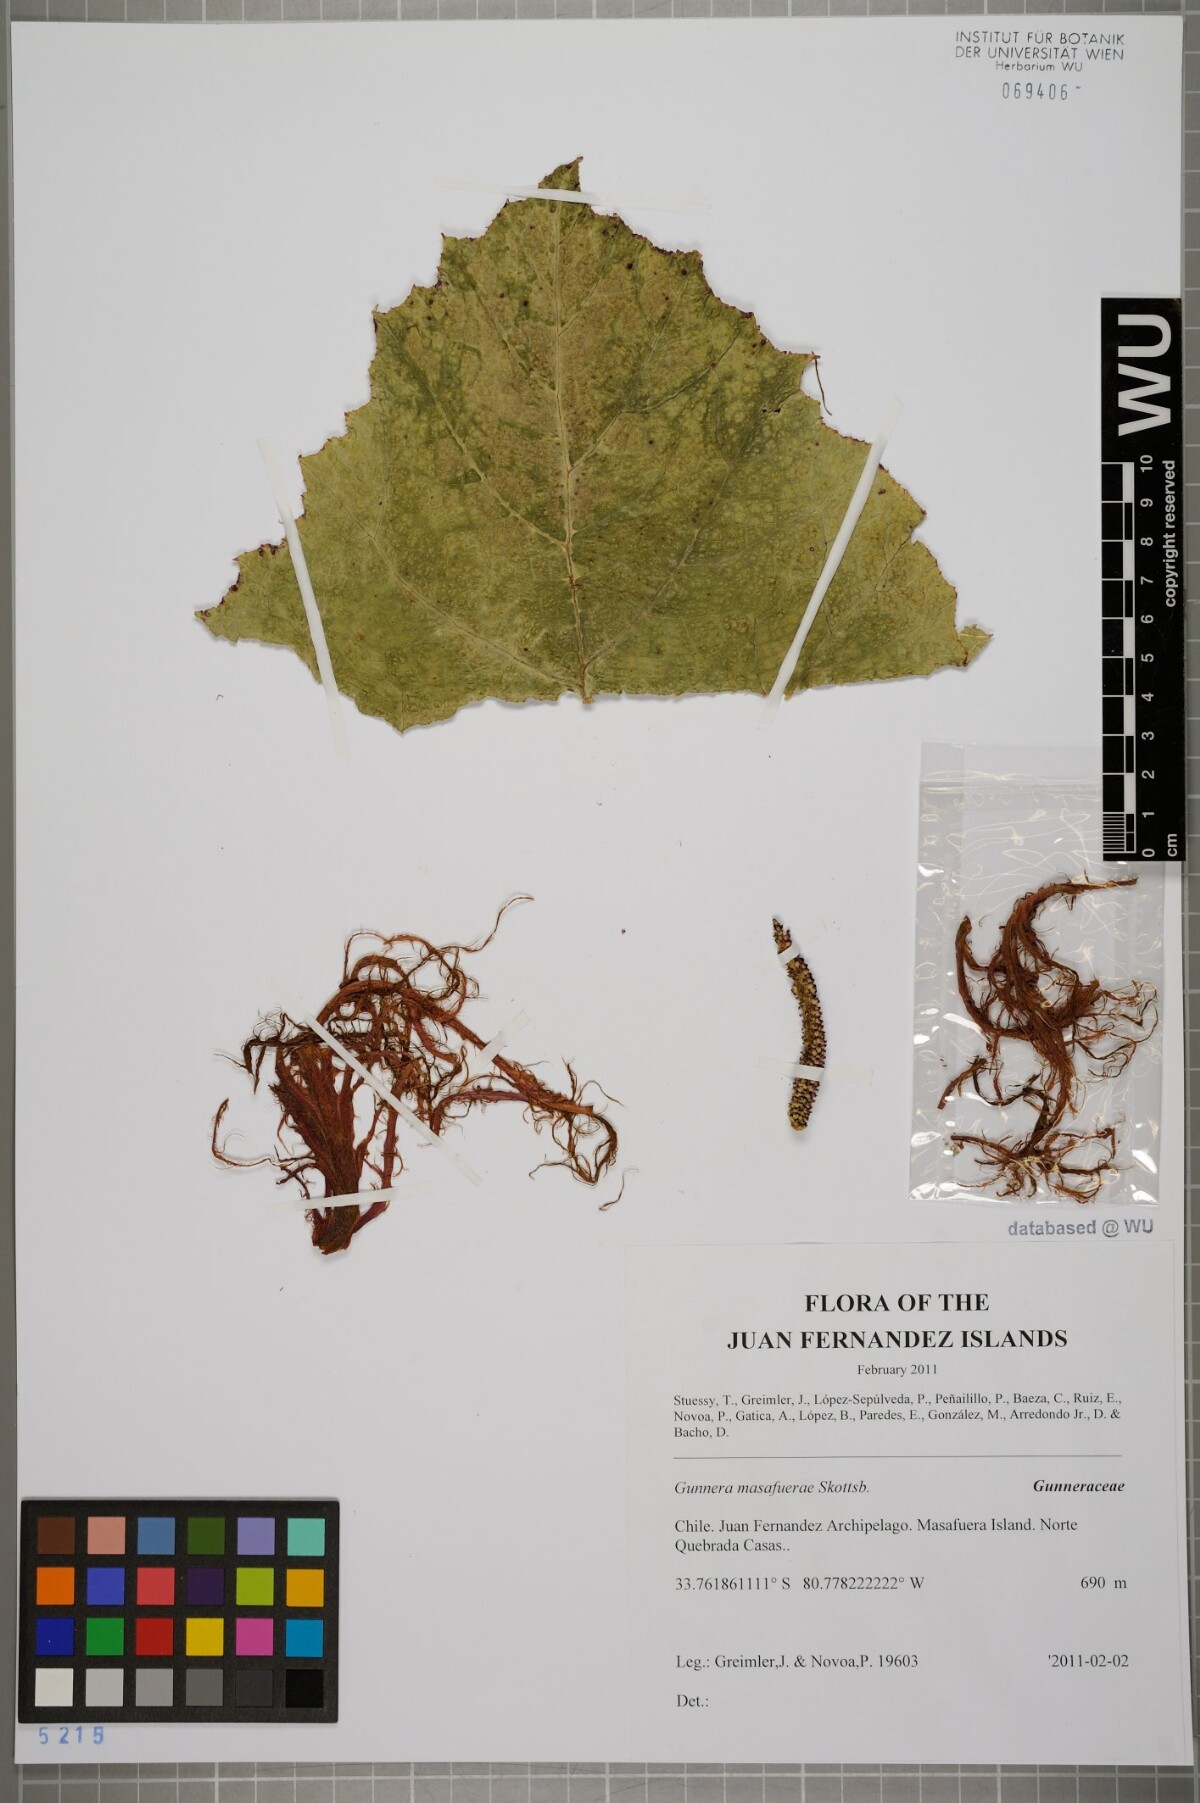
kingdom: Plantae
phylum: Tracheophyta
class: Magnoliopsida
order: Gunnerales
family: Gunneraceae
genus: Gunnera
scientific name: Gunnera masafuerae
